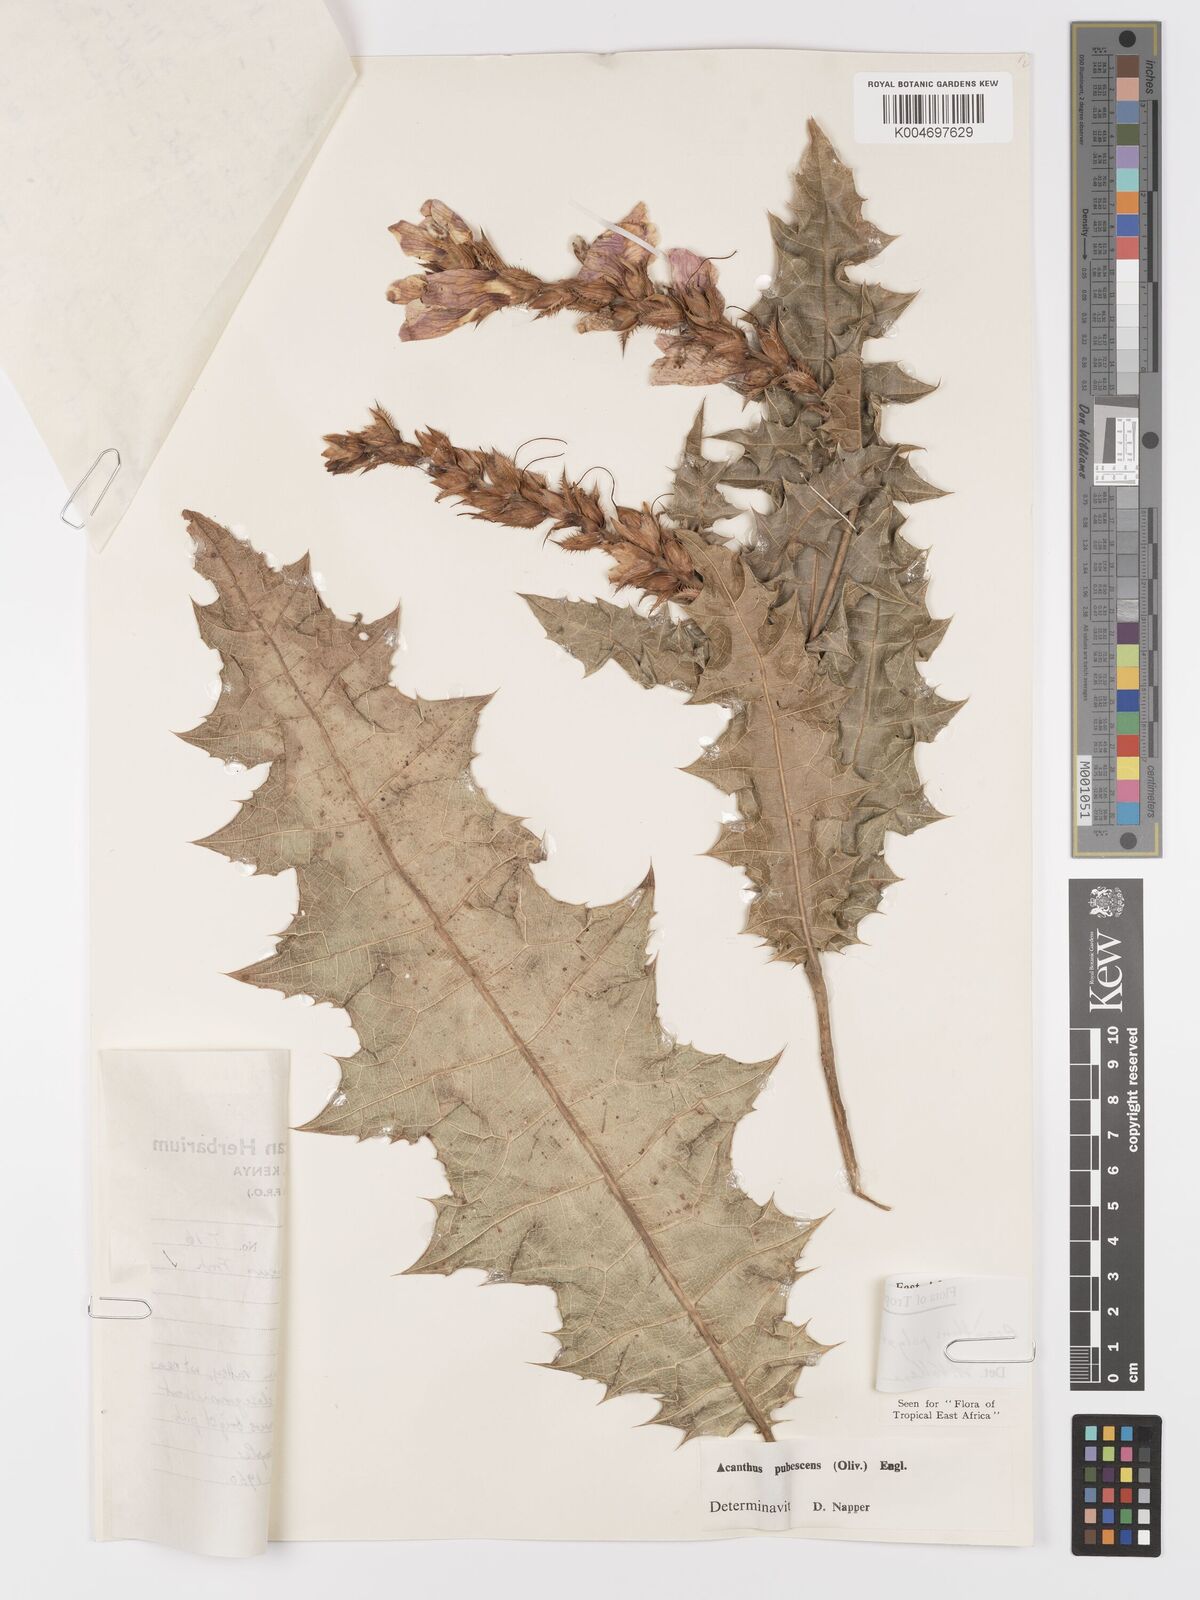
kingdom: Plantae
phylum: Tracheophyta
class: Magnoliopsida
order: Lamiales
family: Acanthaceae
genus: Acanthus
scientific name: Acanthus polystachyus
